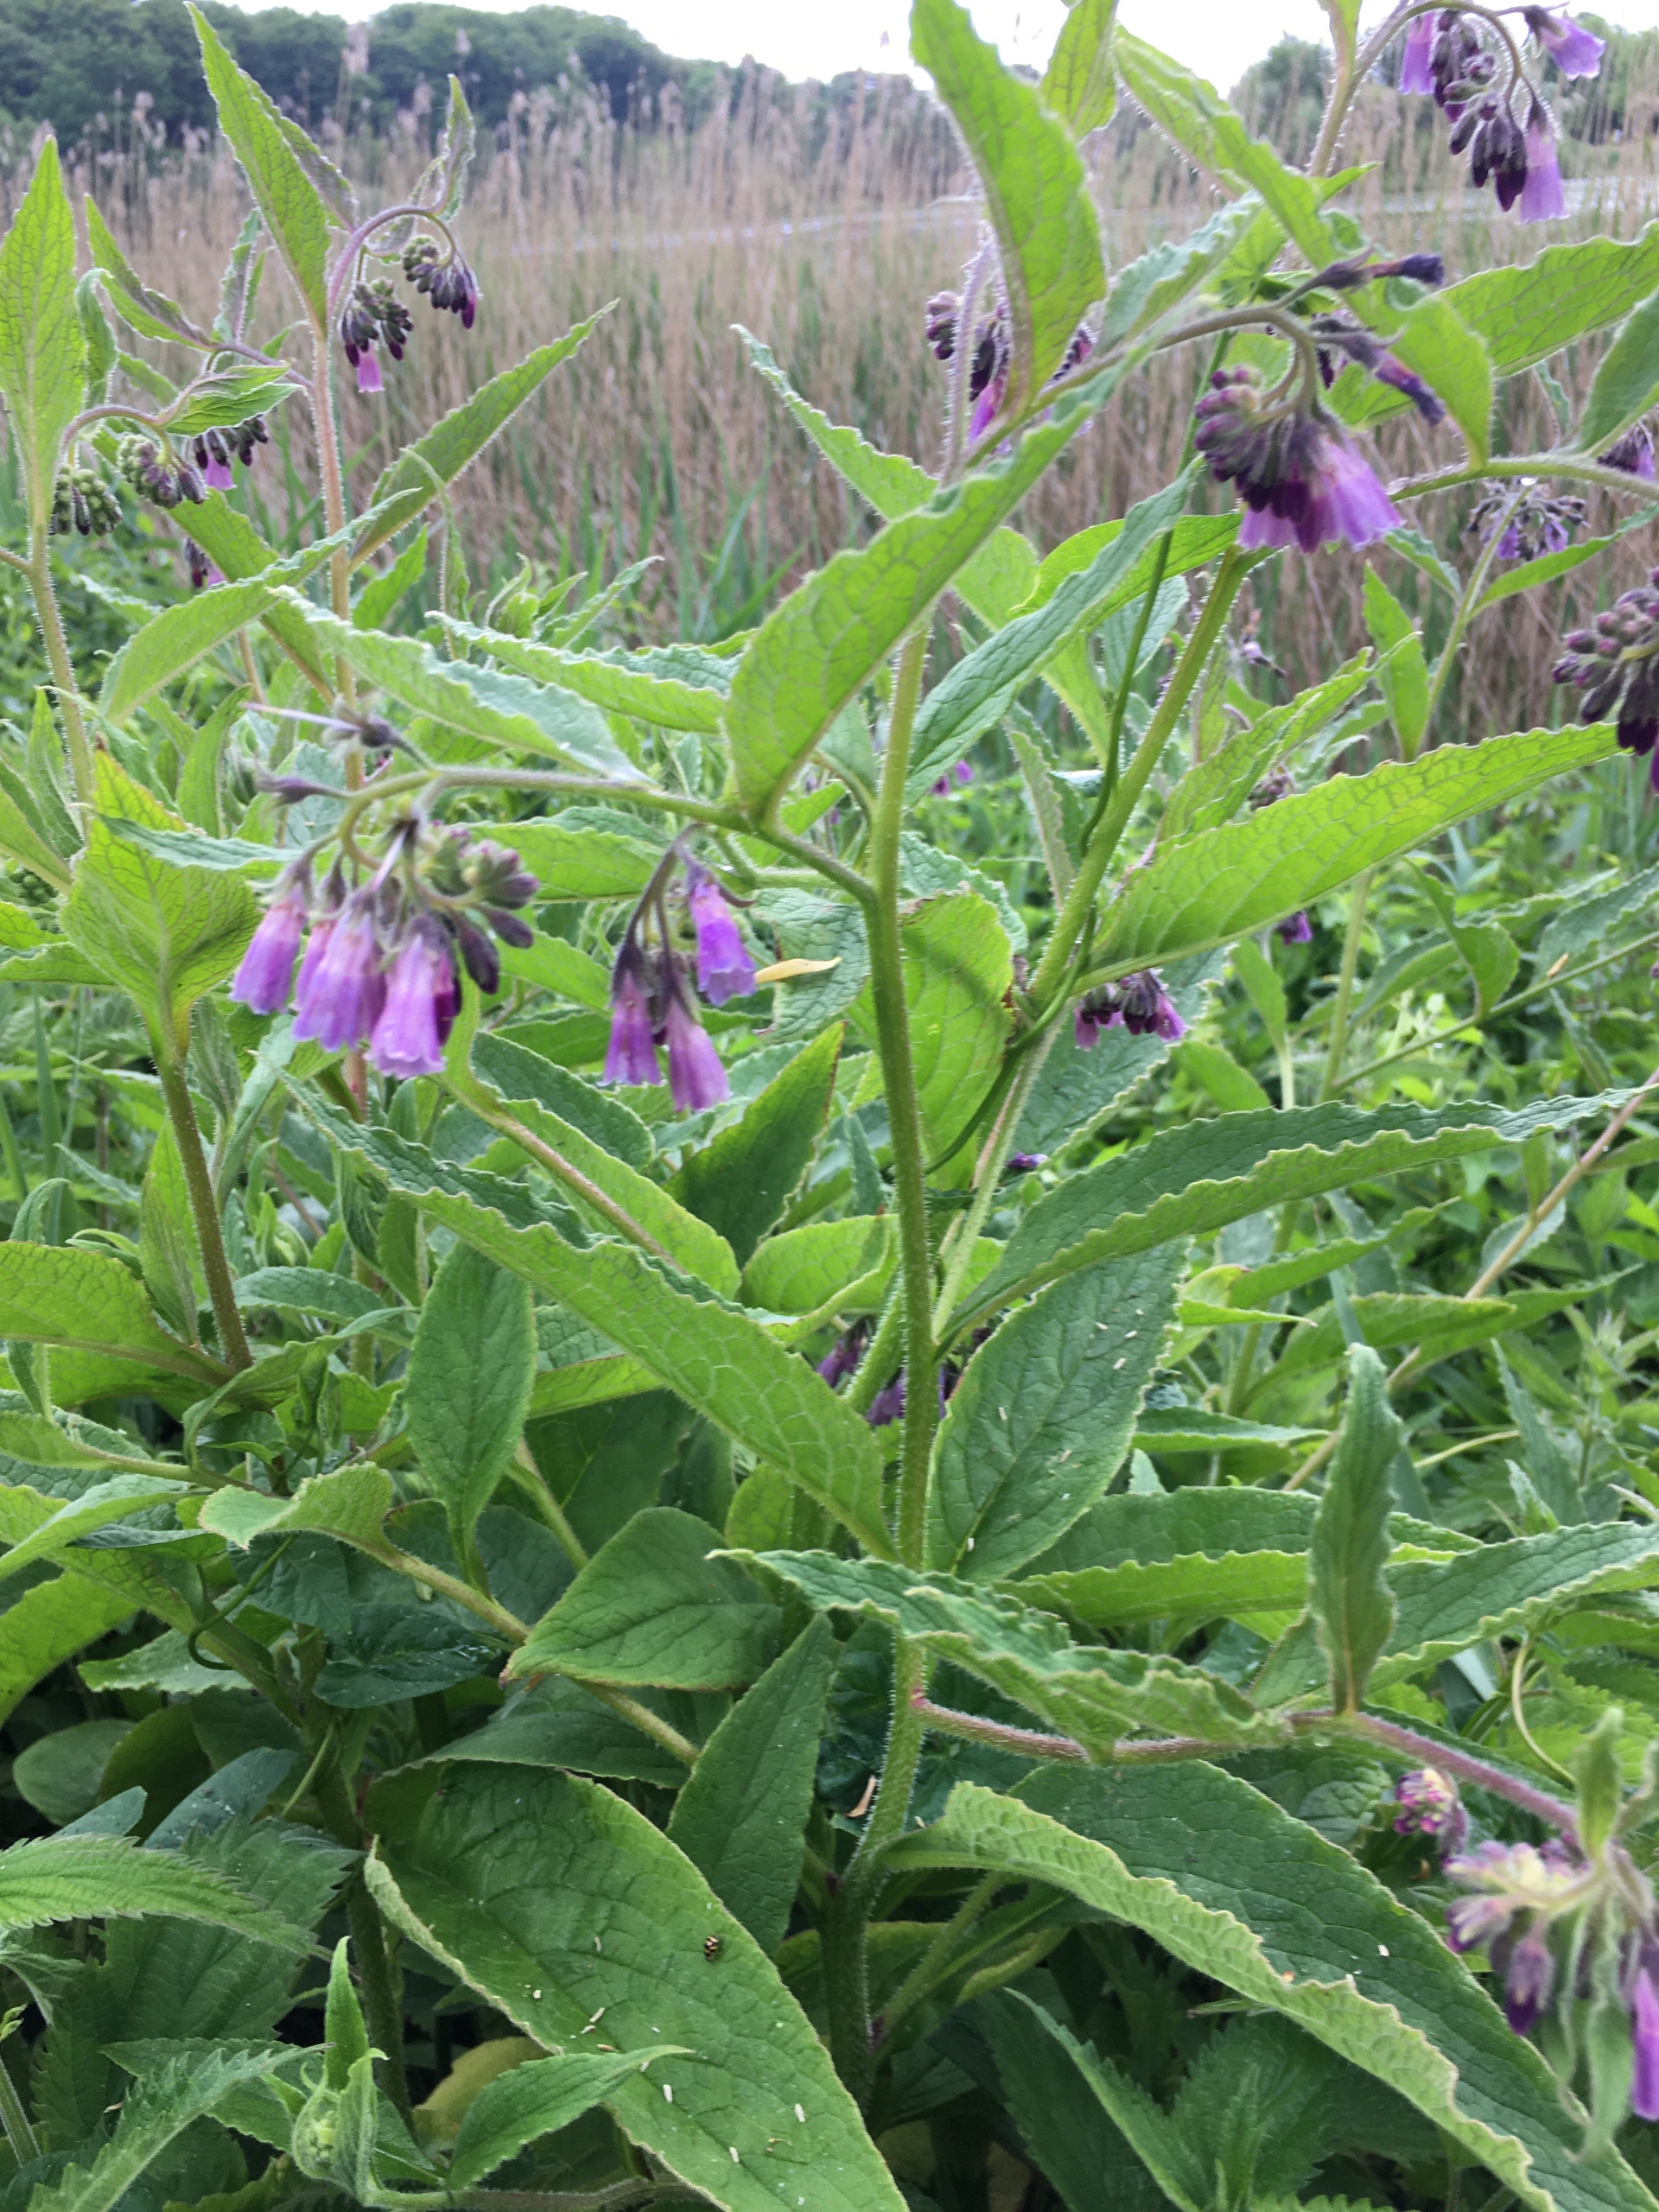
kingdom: Plantae
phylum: Tracheophyta
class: Magnoliopsida
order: Boraginales
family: Boraginaceae
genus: Symphytum
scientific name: Symphytum uplandicum
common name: Foder-kulsukker
